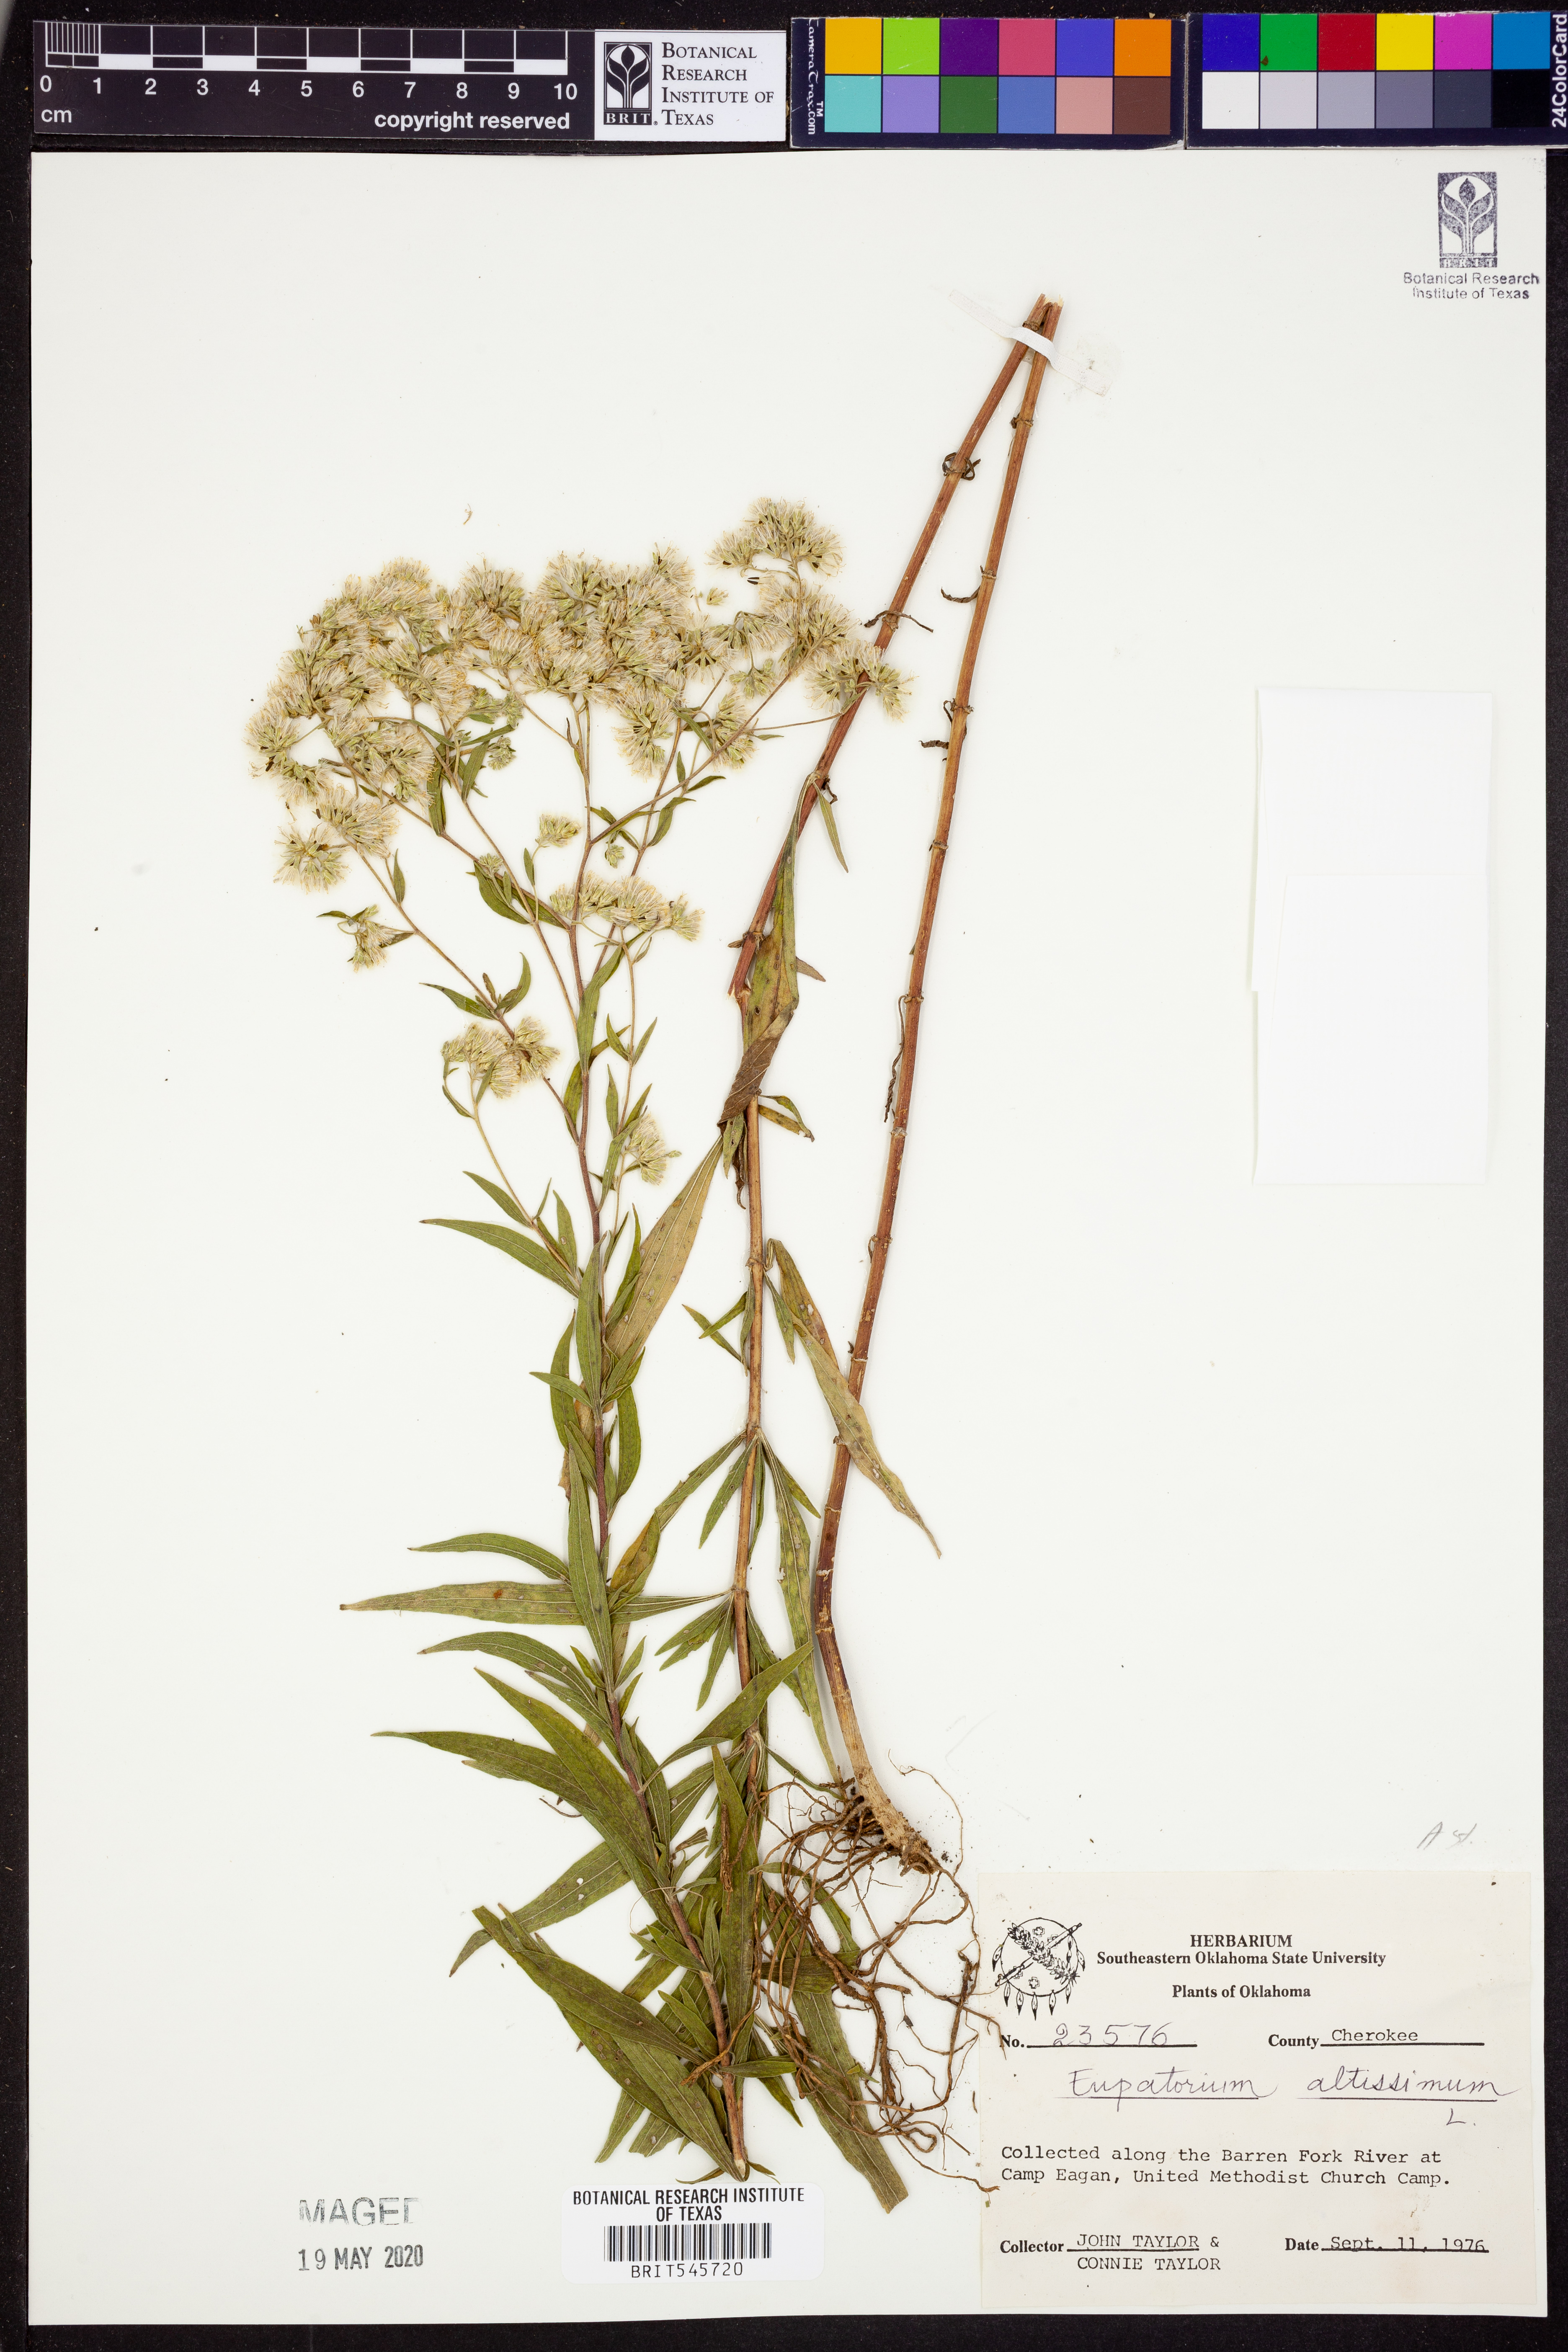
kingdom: Plantae
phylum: Tracheophyta
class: Magnoliopsida
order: Asterales
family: Asteraceae
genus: Eupatorium
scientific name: Eupatorium altissimum
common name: Tall thoroughwort
